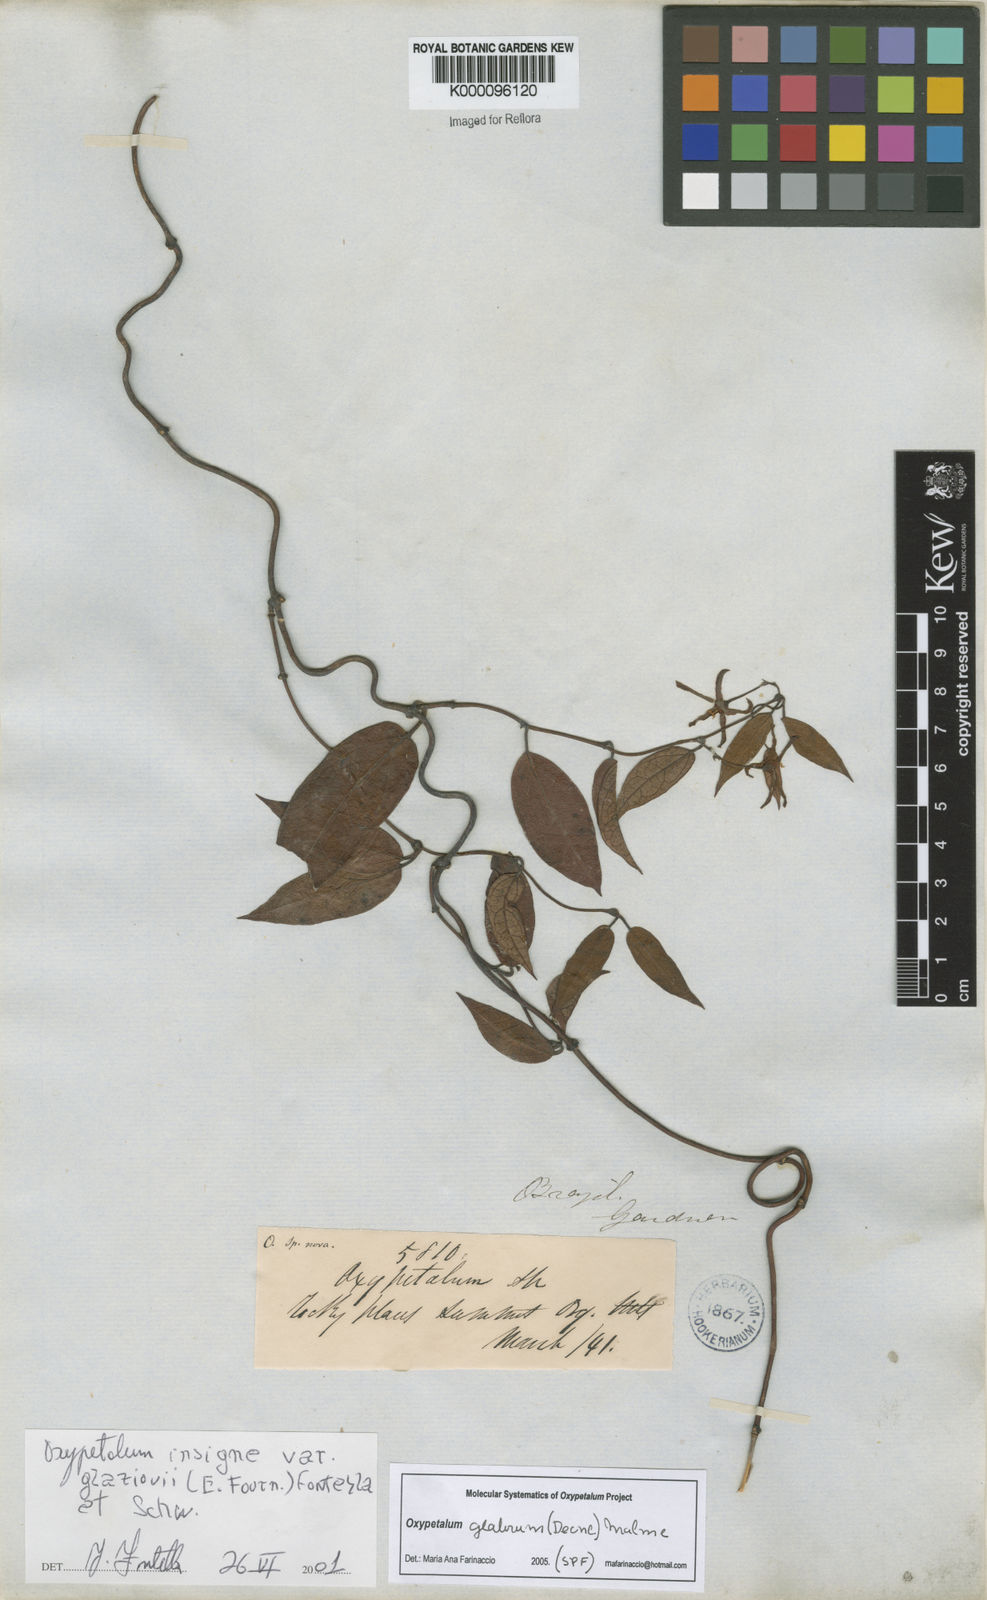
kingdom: Plantae
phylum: Tracheophyta
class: Magnoliopsida
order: Gentianales
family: Apocynaceae
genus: Oxypetalum
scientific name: Oxypetalum insigne
